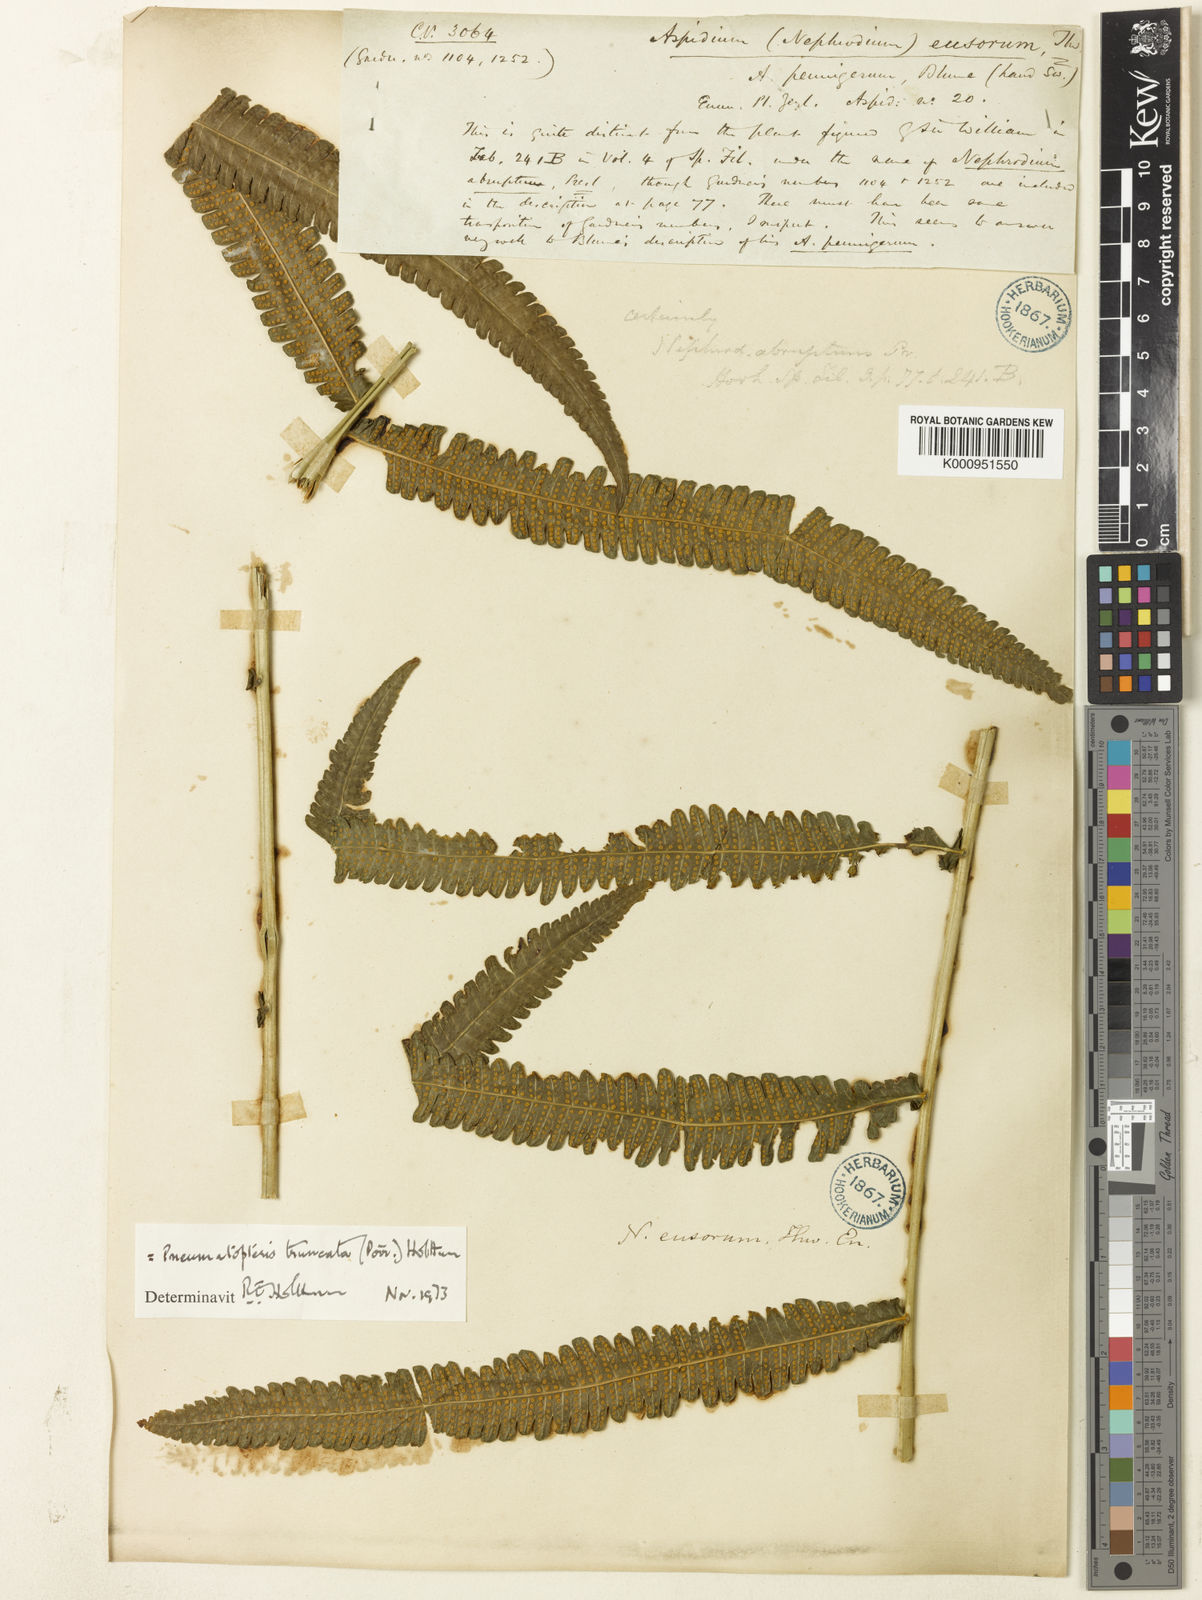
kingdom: Plantae
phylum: Tracheophyta
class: Polypodiopsida
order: Polypodiales
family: Thelypteridaceae
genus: Reholttumia
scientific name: Reholttumia truncata
